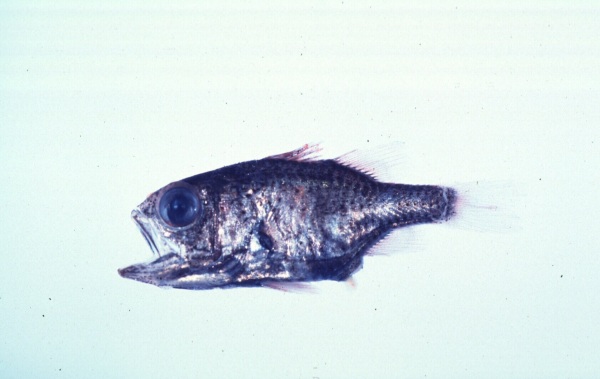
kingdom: Animalia
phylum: Chordata
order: Perciformes
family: Apogonidae
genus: Siphamia
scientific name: Siphamia mossambica
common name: Sea urchin cardinal
